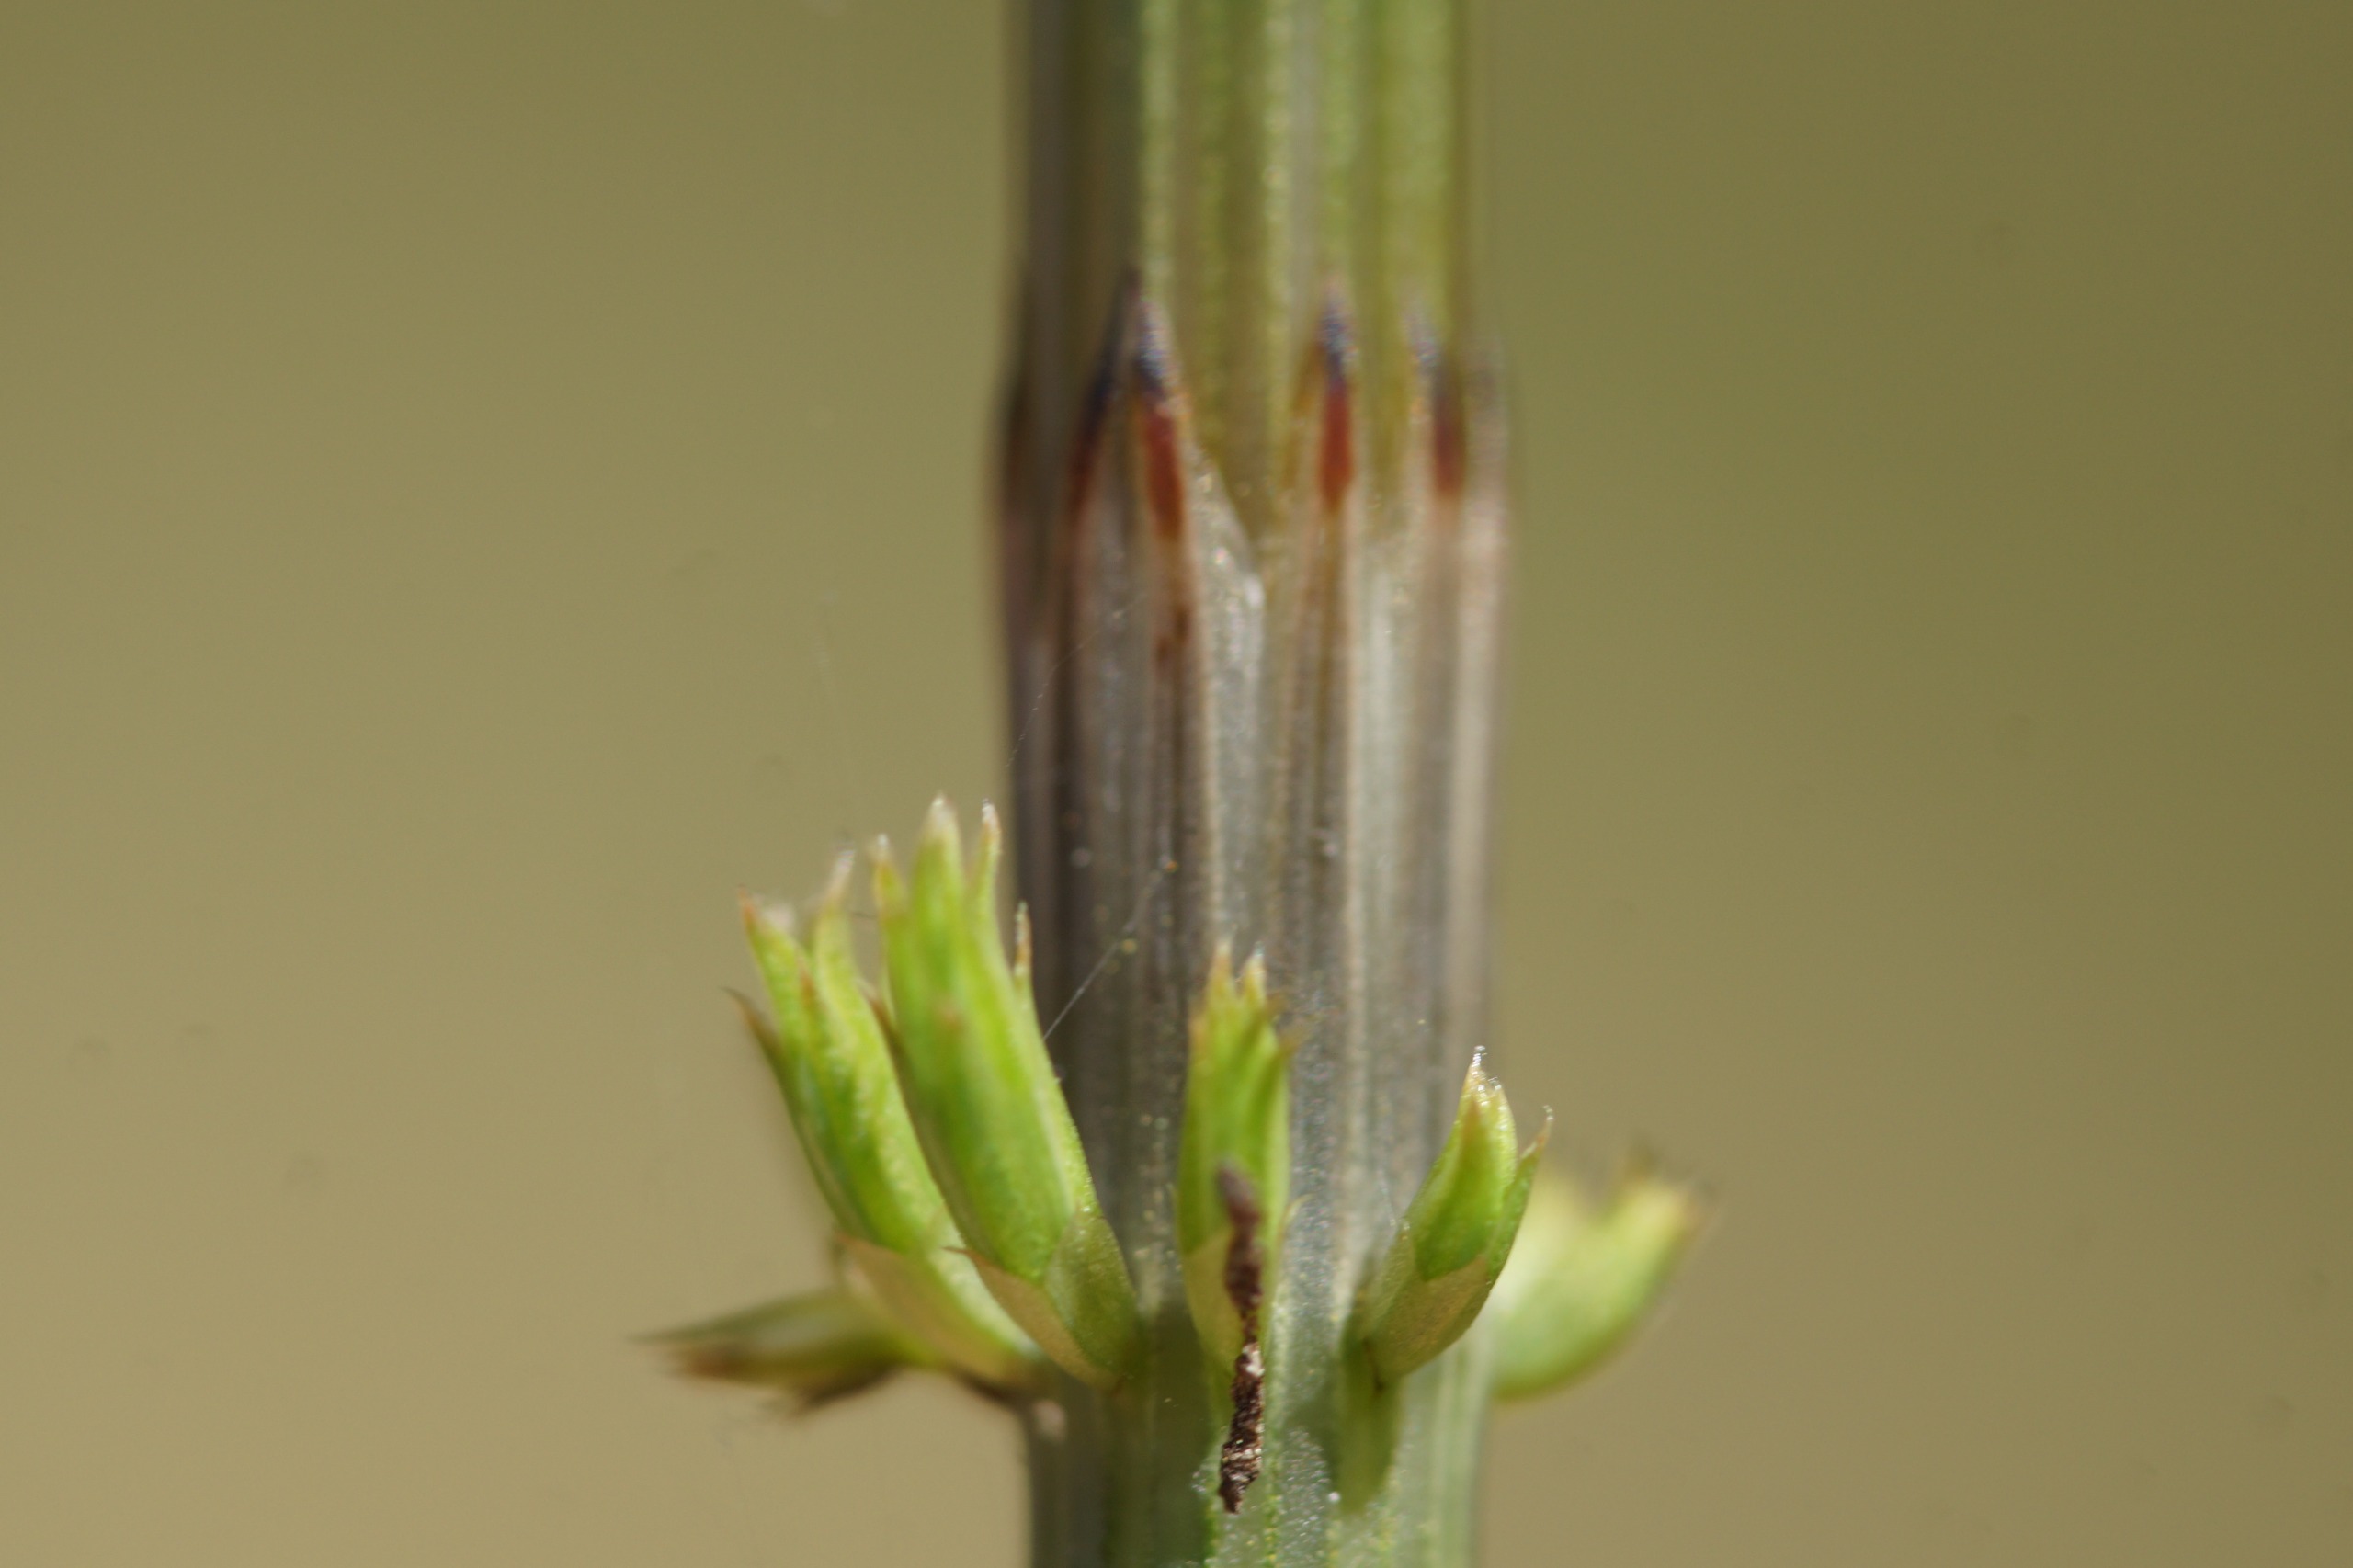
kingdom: Plantae
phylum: Tracheophyta
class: Polypodiopsida
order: Equisetales
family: Equisetaceae
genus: Equisetum
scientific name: Equisetum arvense
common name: Ager-padderok
